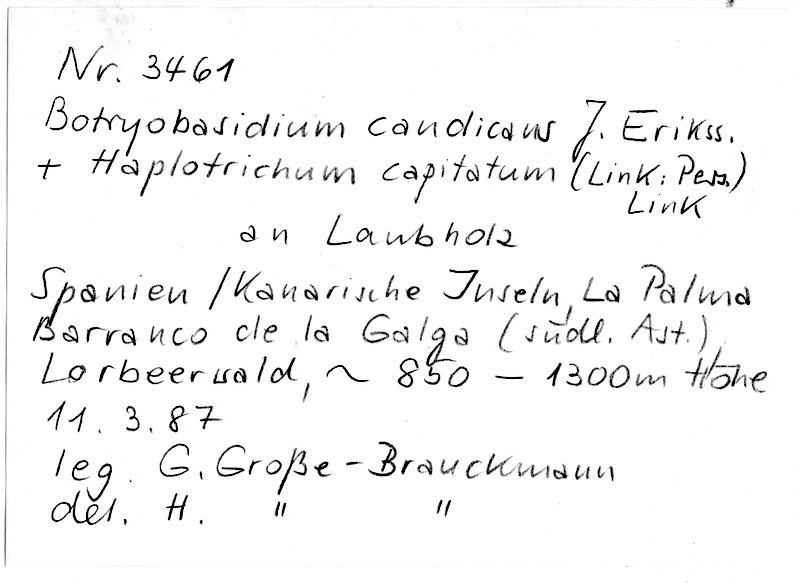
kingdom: Fungi
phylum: Basidiomycota
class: Agaricomycetes
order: Cantharellales
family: Botryobasidiaceae
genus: Botryobasidium
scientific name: Botryobasidium candicans
